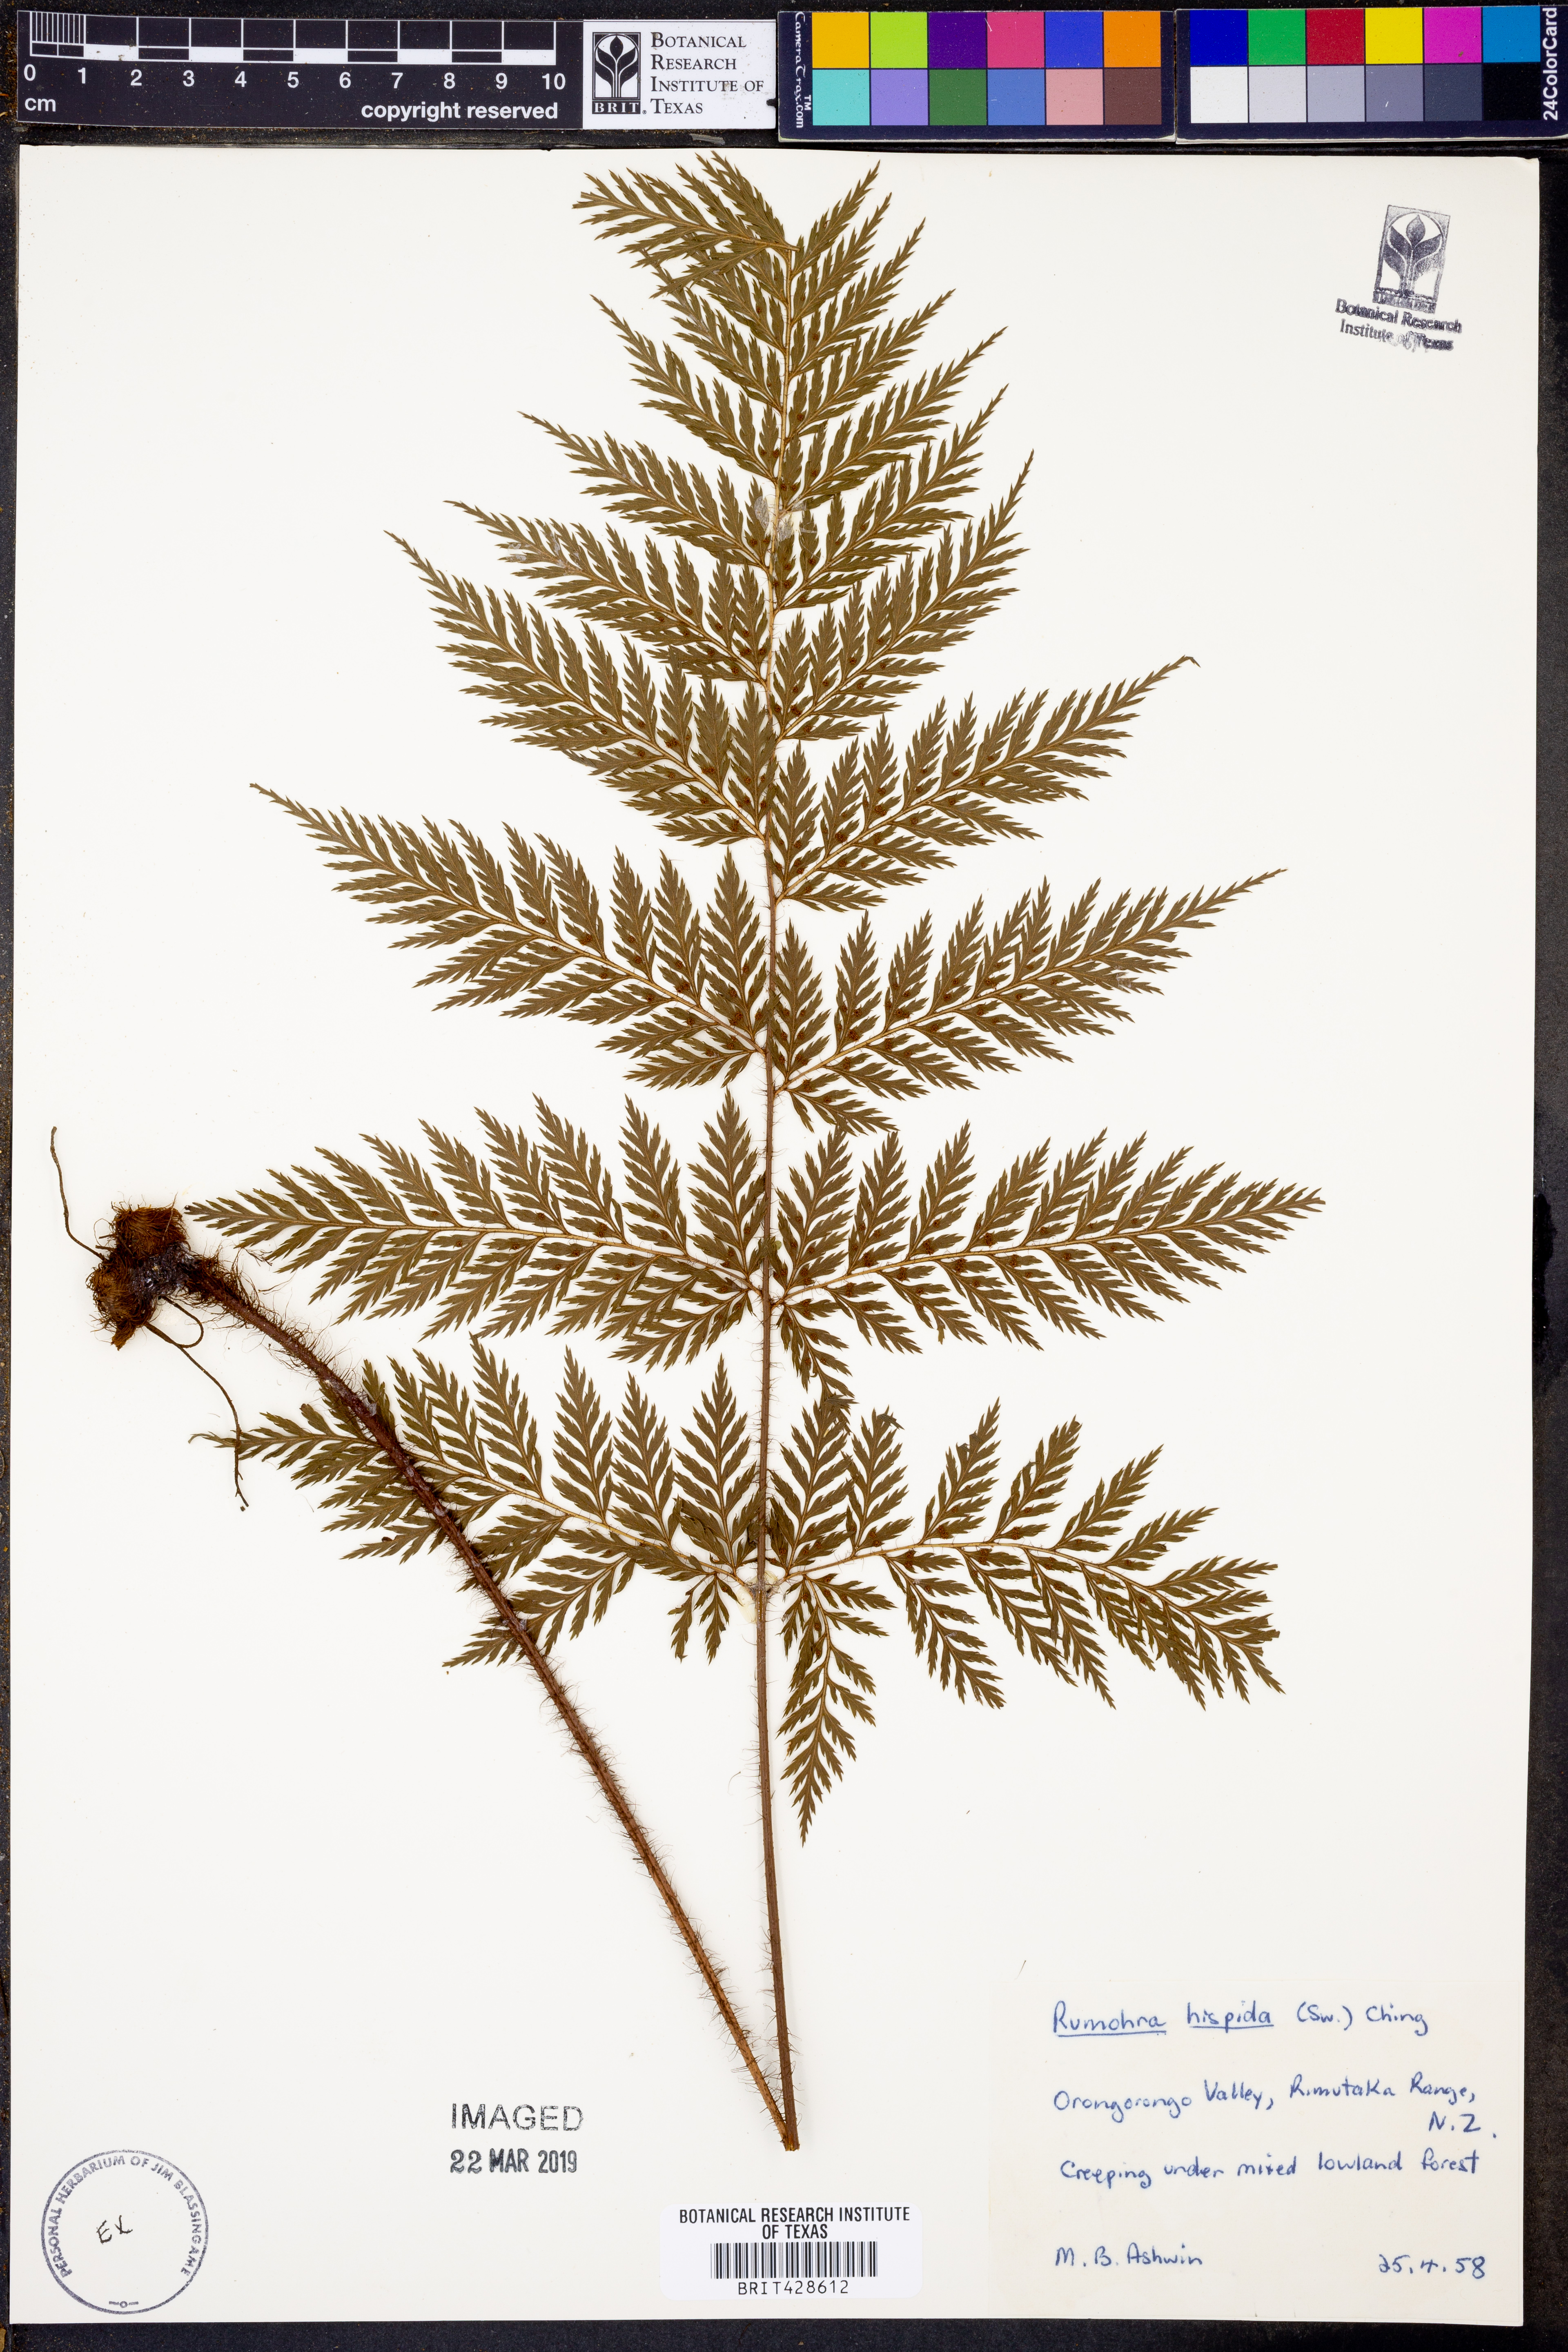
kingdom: Plantae
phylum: Tracheophyta
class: Polypodiopsida
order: Polypodiales
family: Dryopteridaceae
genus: Lastreopsis
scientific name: Lastreopsis hispida
